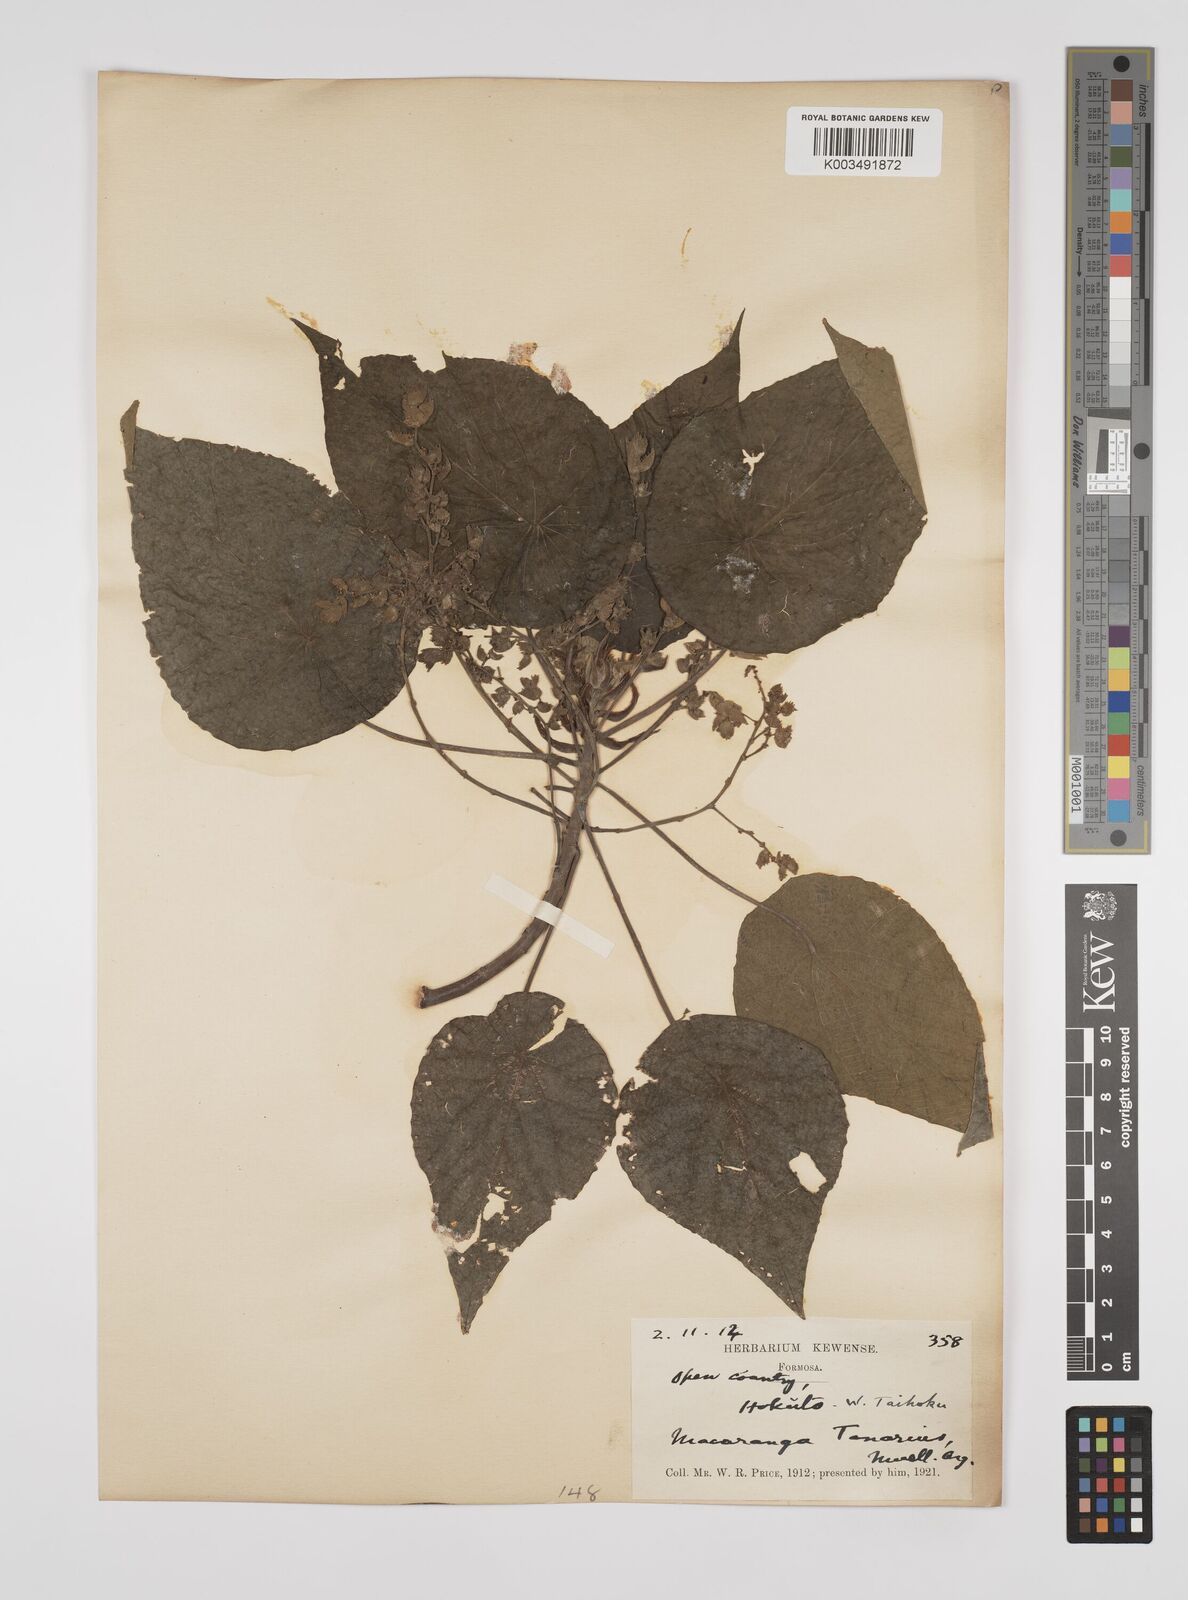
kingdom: Plantae
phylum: Tracheophyta
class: Magnoliopsida
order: Malpighiales
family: Euphorbiaceae
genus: Macaranga
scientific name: Macaranga tanarius
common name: Parasol leaf tree
